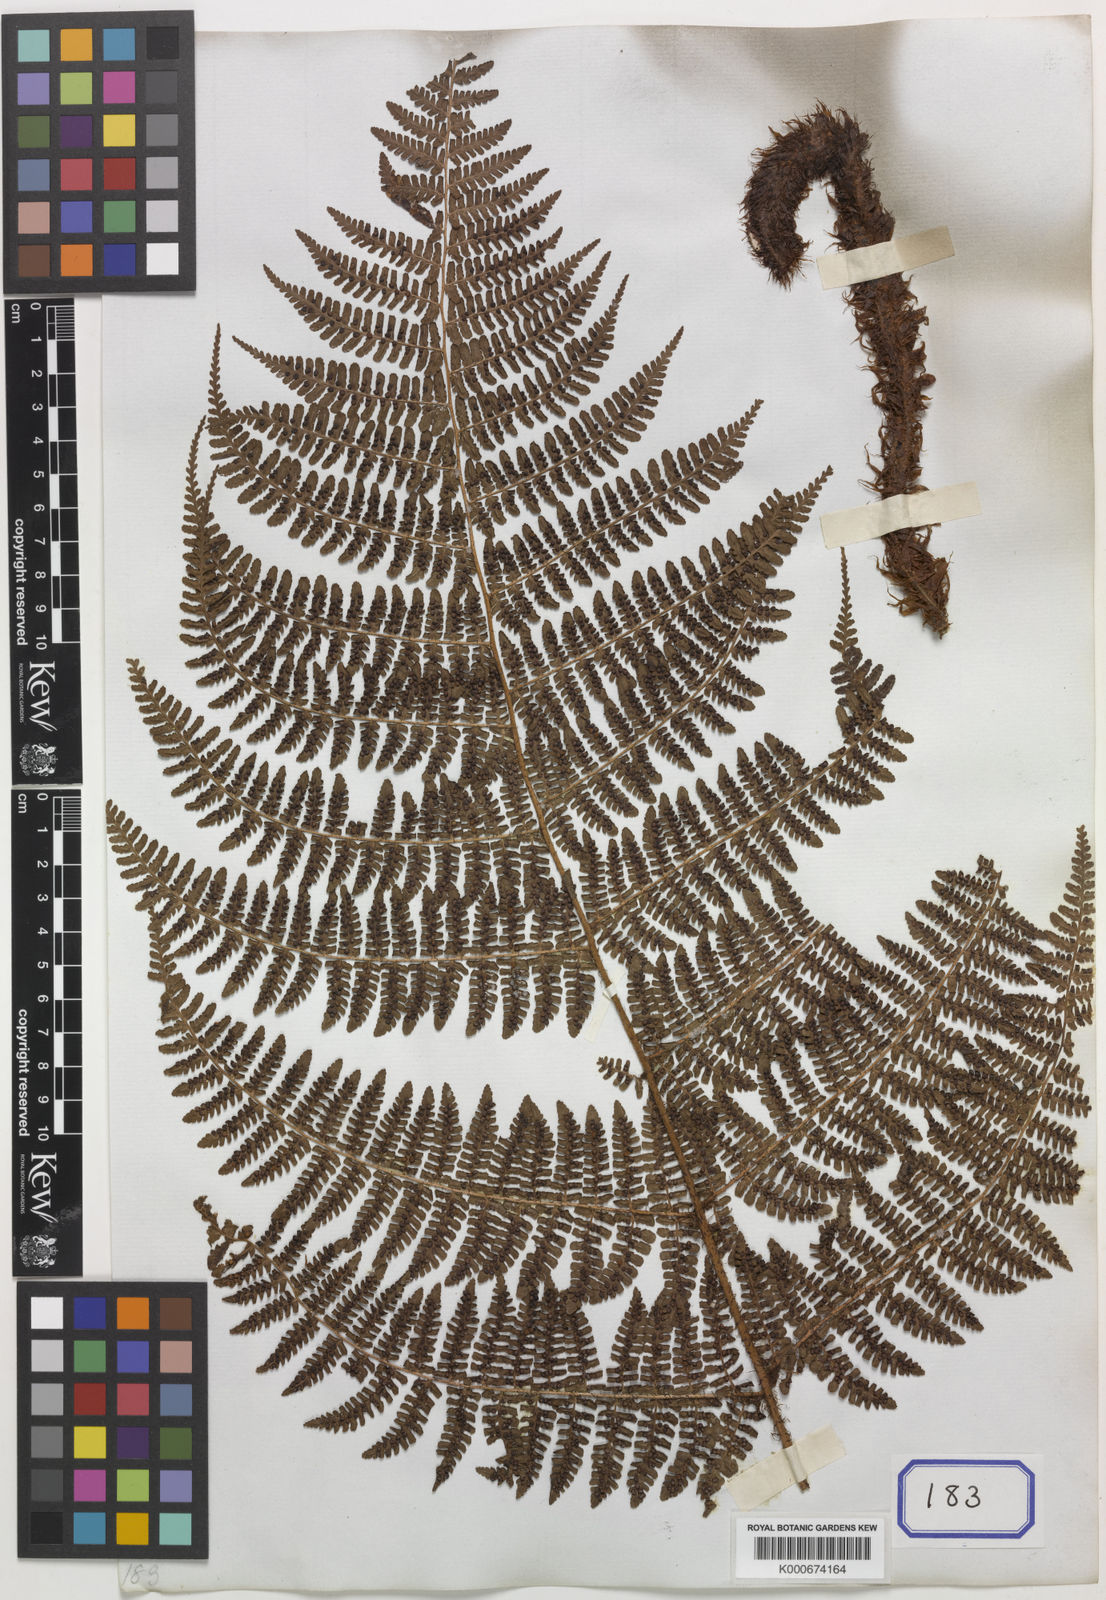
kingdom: Plantae
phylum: Tracheophyta
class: Polypodiopsida
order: Polypodiales
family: Dryopteridaceae
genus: Dryopteris
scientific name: Dryopteris peranema
